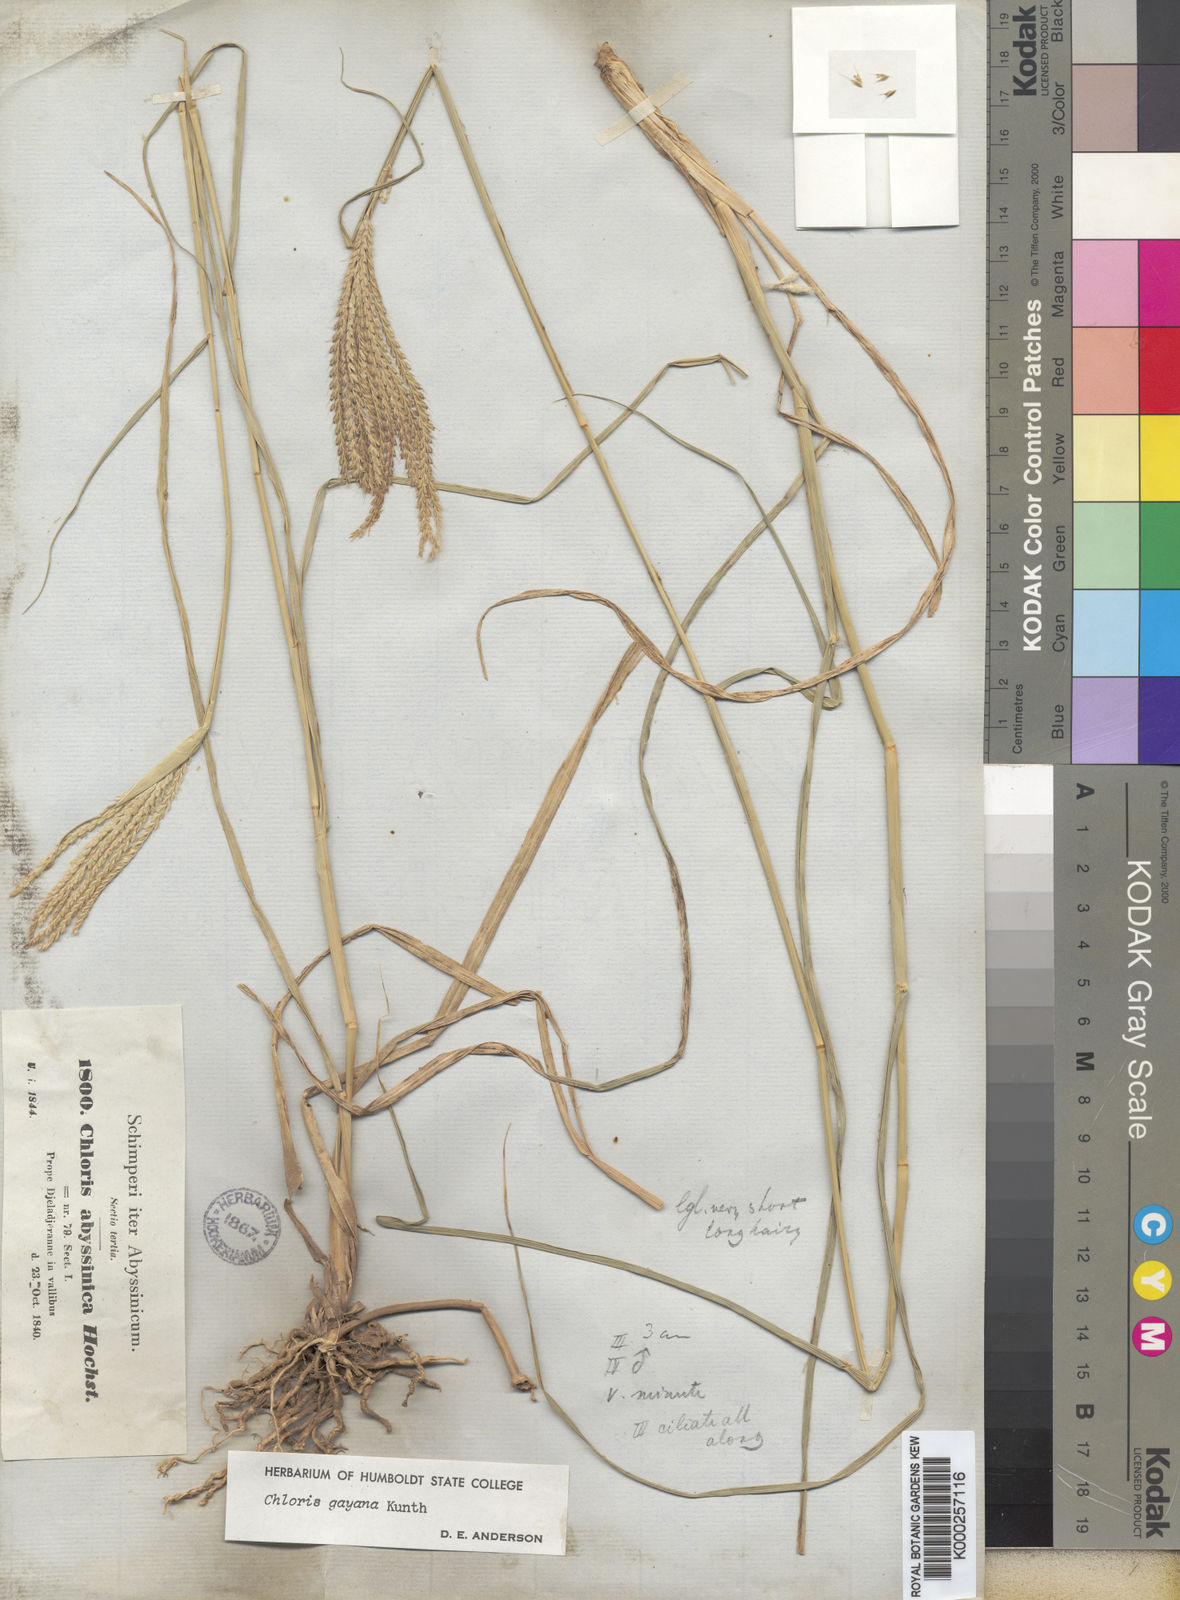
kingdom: Plantae
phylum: Tracheophyta
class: Liliopsida
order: Poales
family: Poaceae
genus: Chloris
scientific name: Chloris gayana
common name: Rhodes grass
